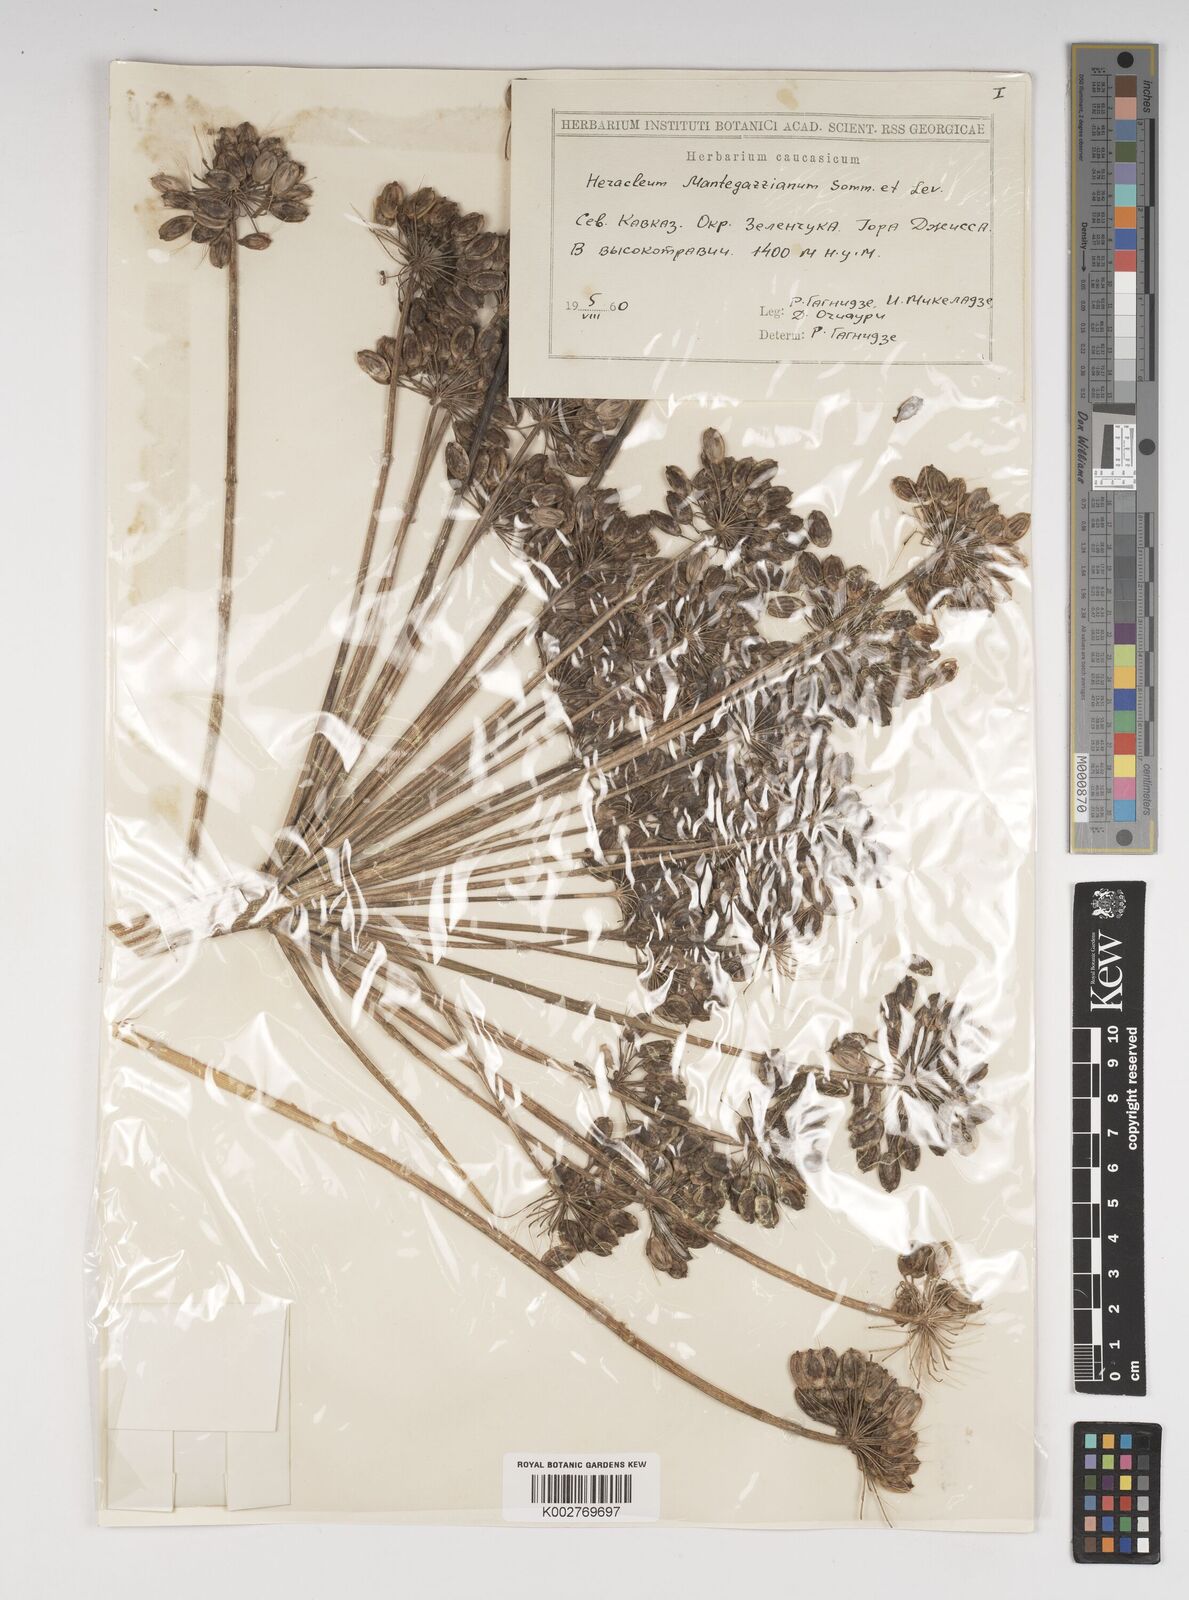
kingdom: Plantae
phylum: Tracheophyta
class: Magnoliopsida
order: Apiales
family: Apiaceae
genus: Heracleum
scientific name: Heracleum mantegazzianum
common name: Giant hogweed
